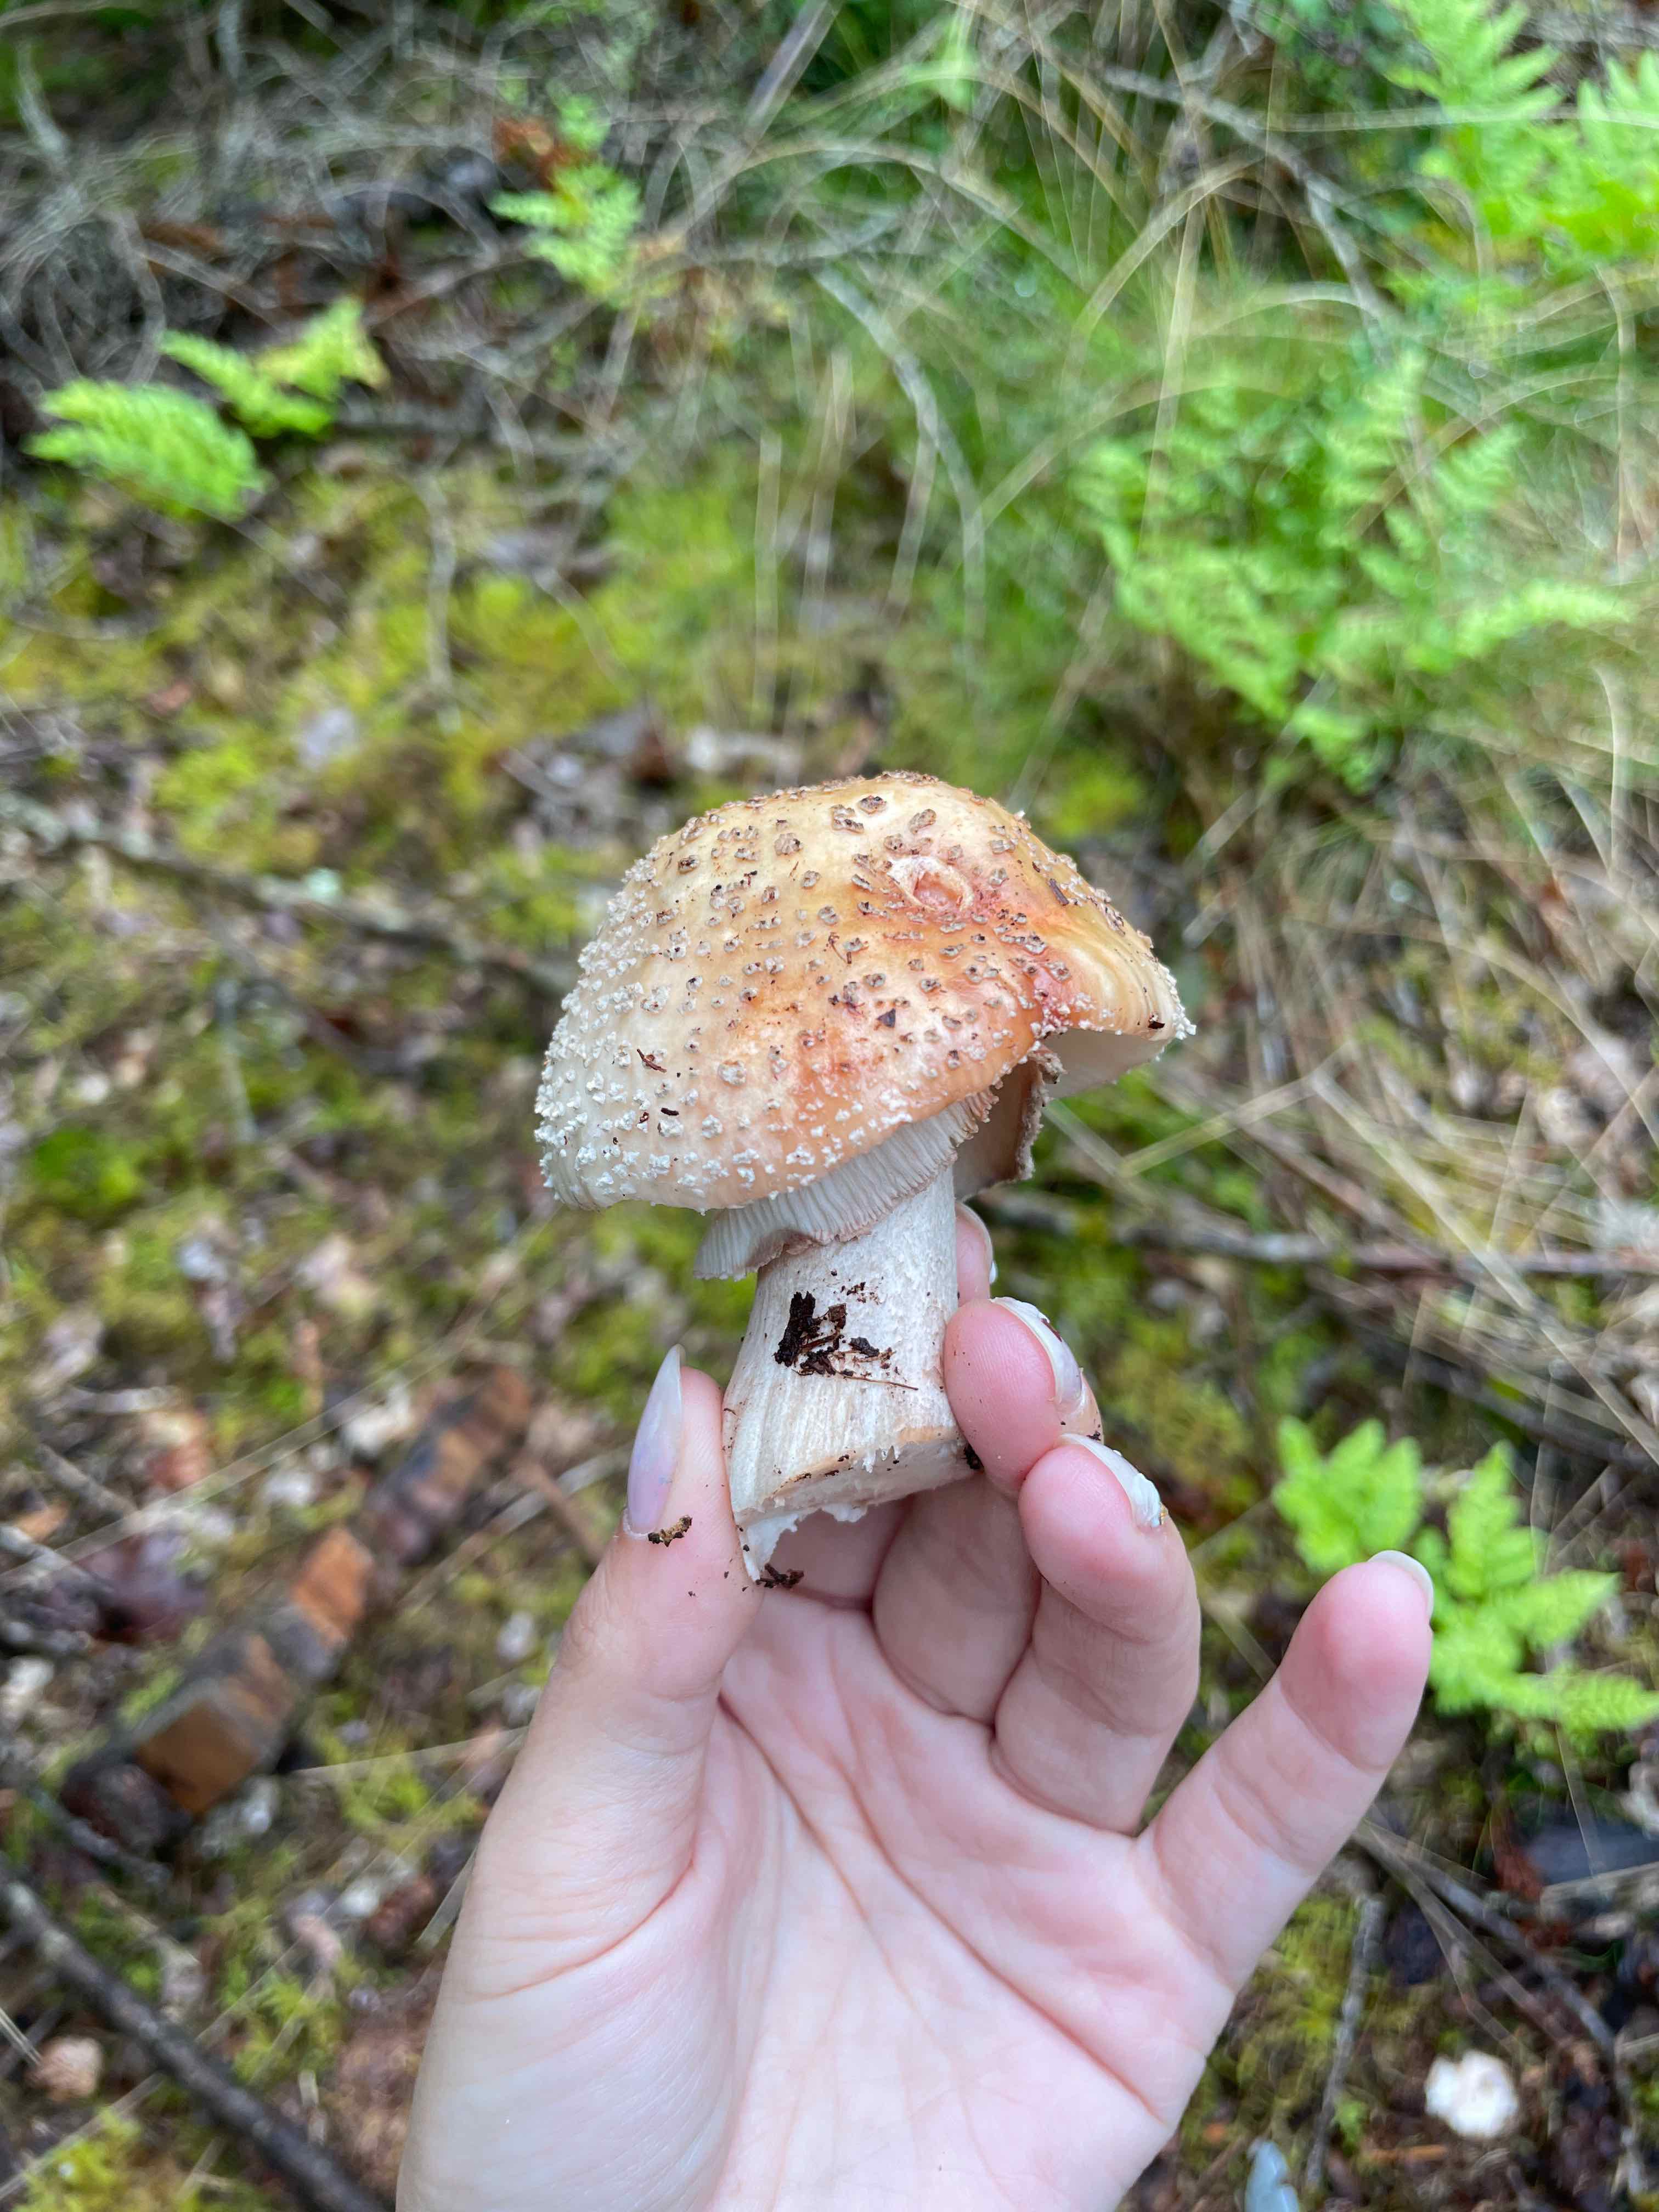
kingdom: Fungi
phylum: Basidiomycota
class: Agaricomycetes
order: Agaricales
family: Amanitaceae
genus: Amanita
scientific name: Amanita rubescens
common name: rødmende fluesvamp
